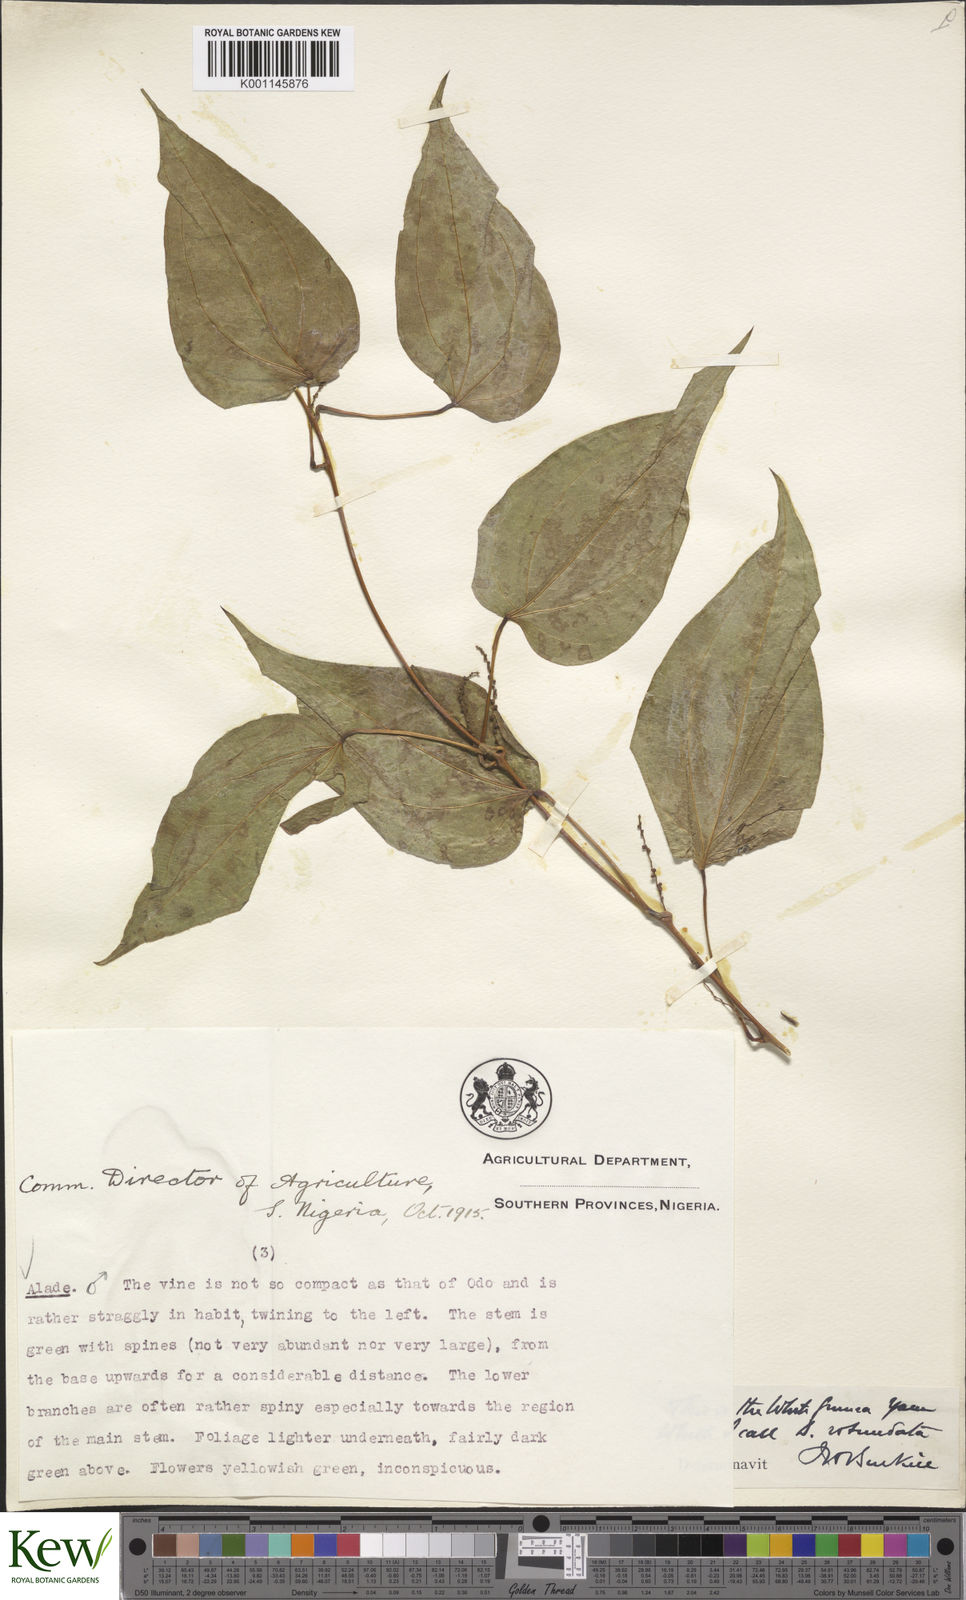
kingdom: Plantae
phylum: Tracheophyta
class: Liliopsida
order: Dioscoreales
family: Dioscoreaceae
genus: Dioscorea
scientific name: Dioscorea cayenensis
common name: Attoto yam
